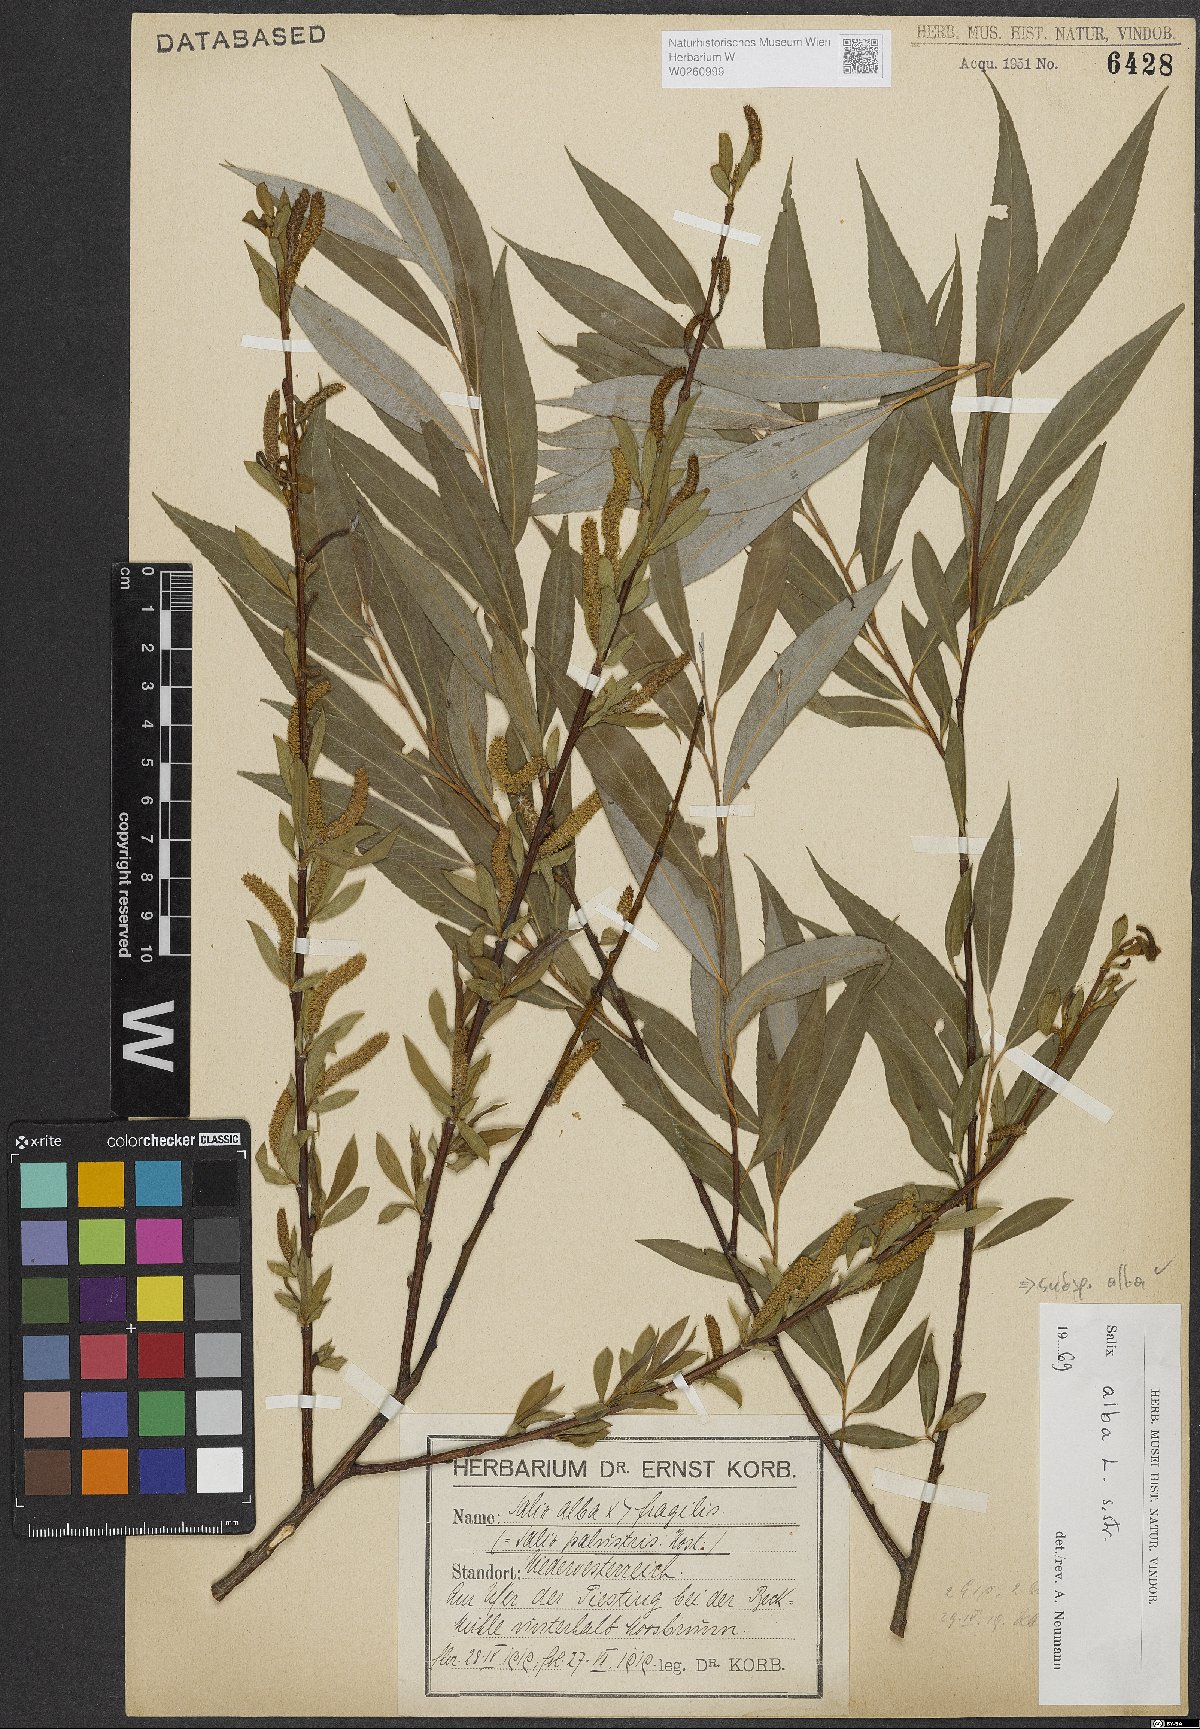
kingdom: Plantae
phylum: Tracheophyta
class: Magnoliopsida
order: Malpighiales
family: Salicaceae
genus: Salix
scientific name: Salix alba
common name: White willow
